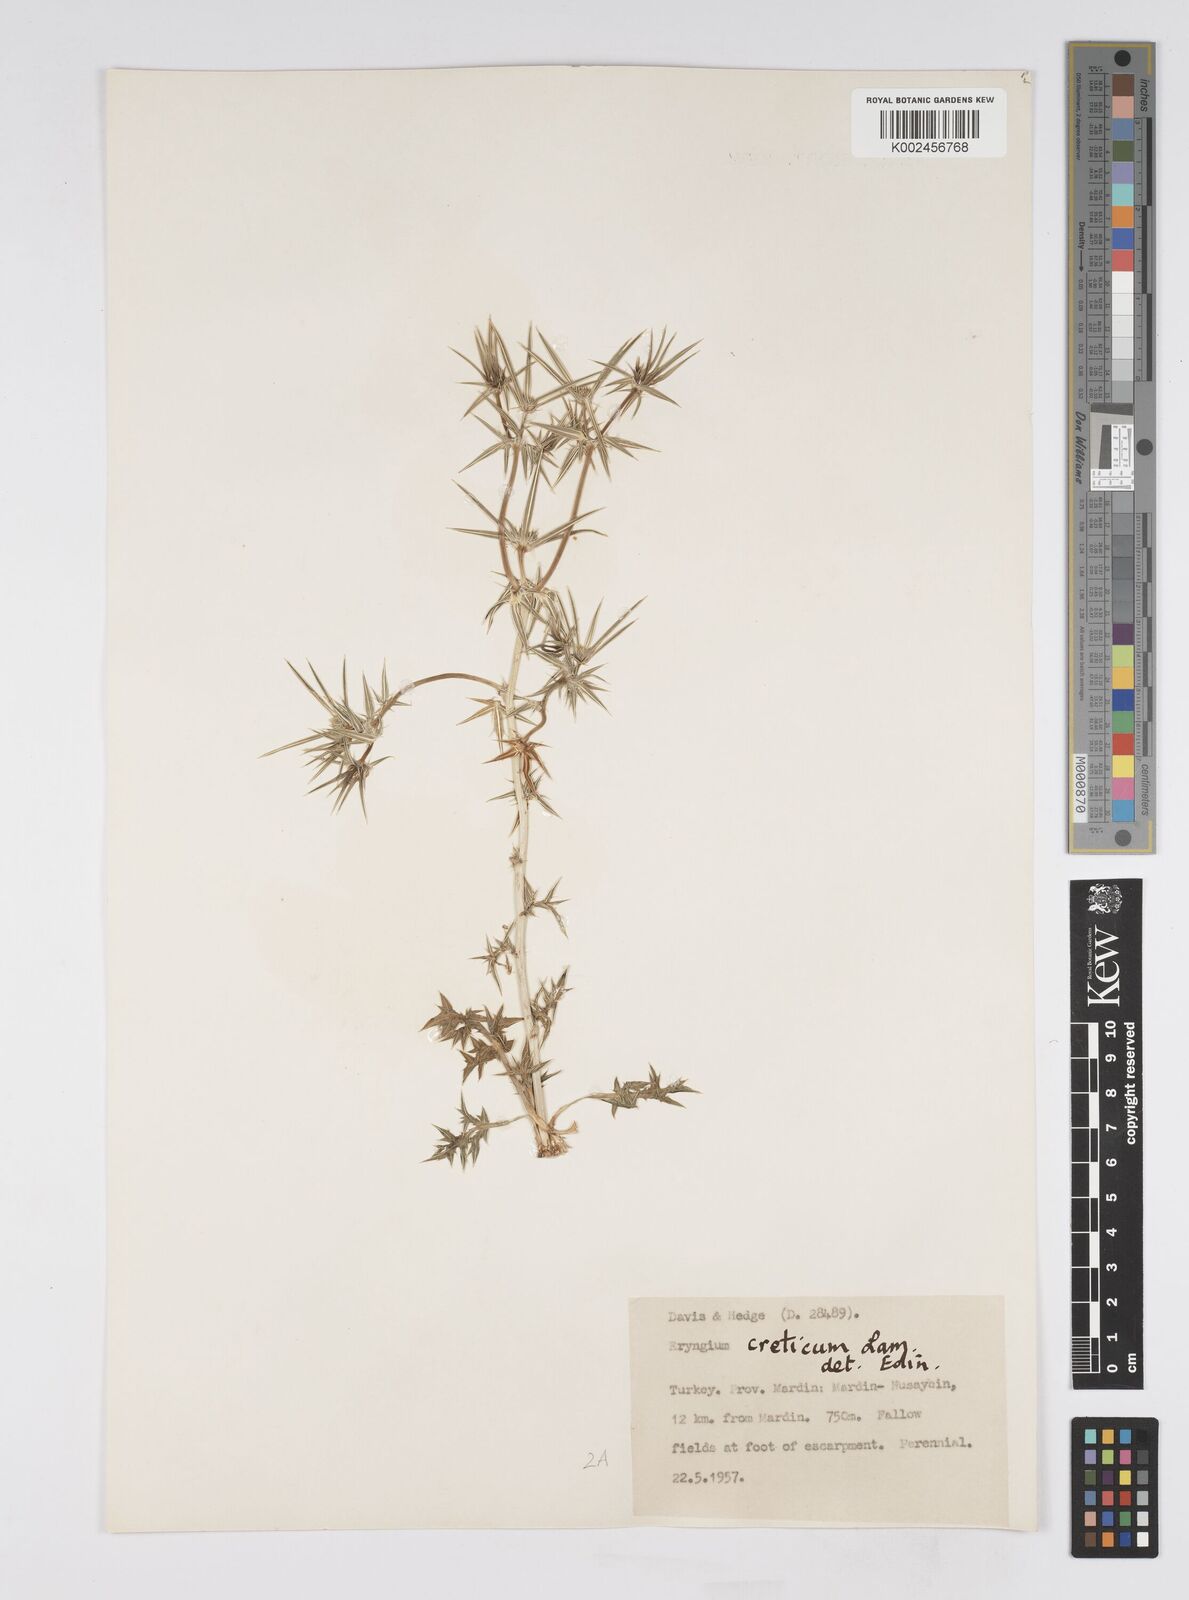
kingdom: Plantae
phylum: Tracheophyta
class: Magnoliopsida
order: Apiales
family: Apiaceae
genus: Eryngium
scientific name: Eryngium creticum
